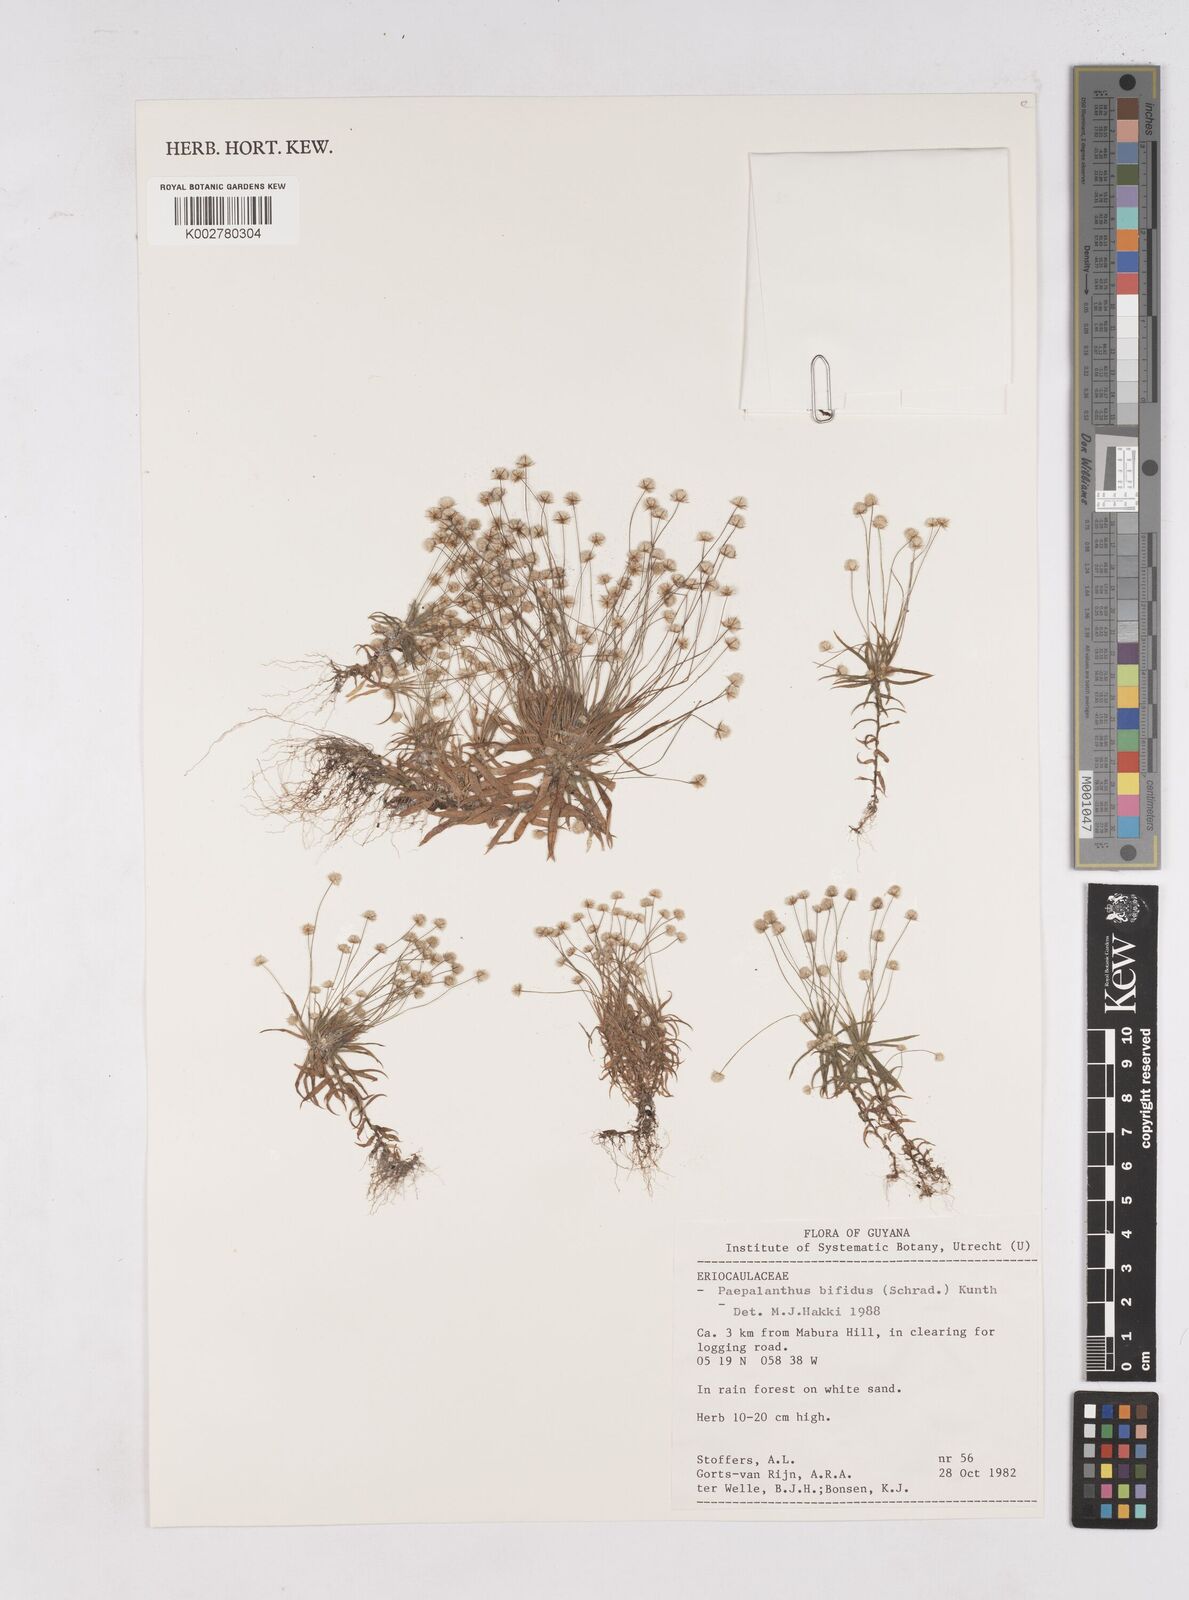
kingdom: Plantae
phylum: Tracheophyta
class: Liliopsida
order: Poales
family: Eriocaulaceae
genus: Paepalanthus
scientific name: Paepalanthus bifidus
